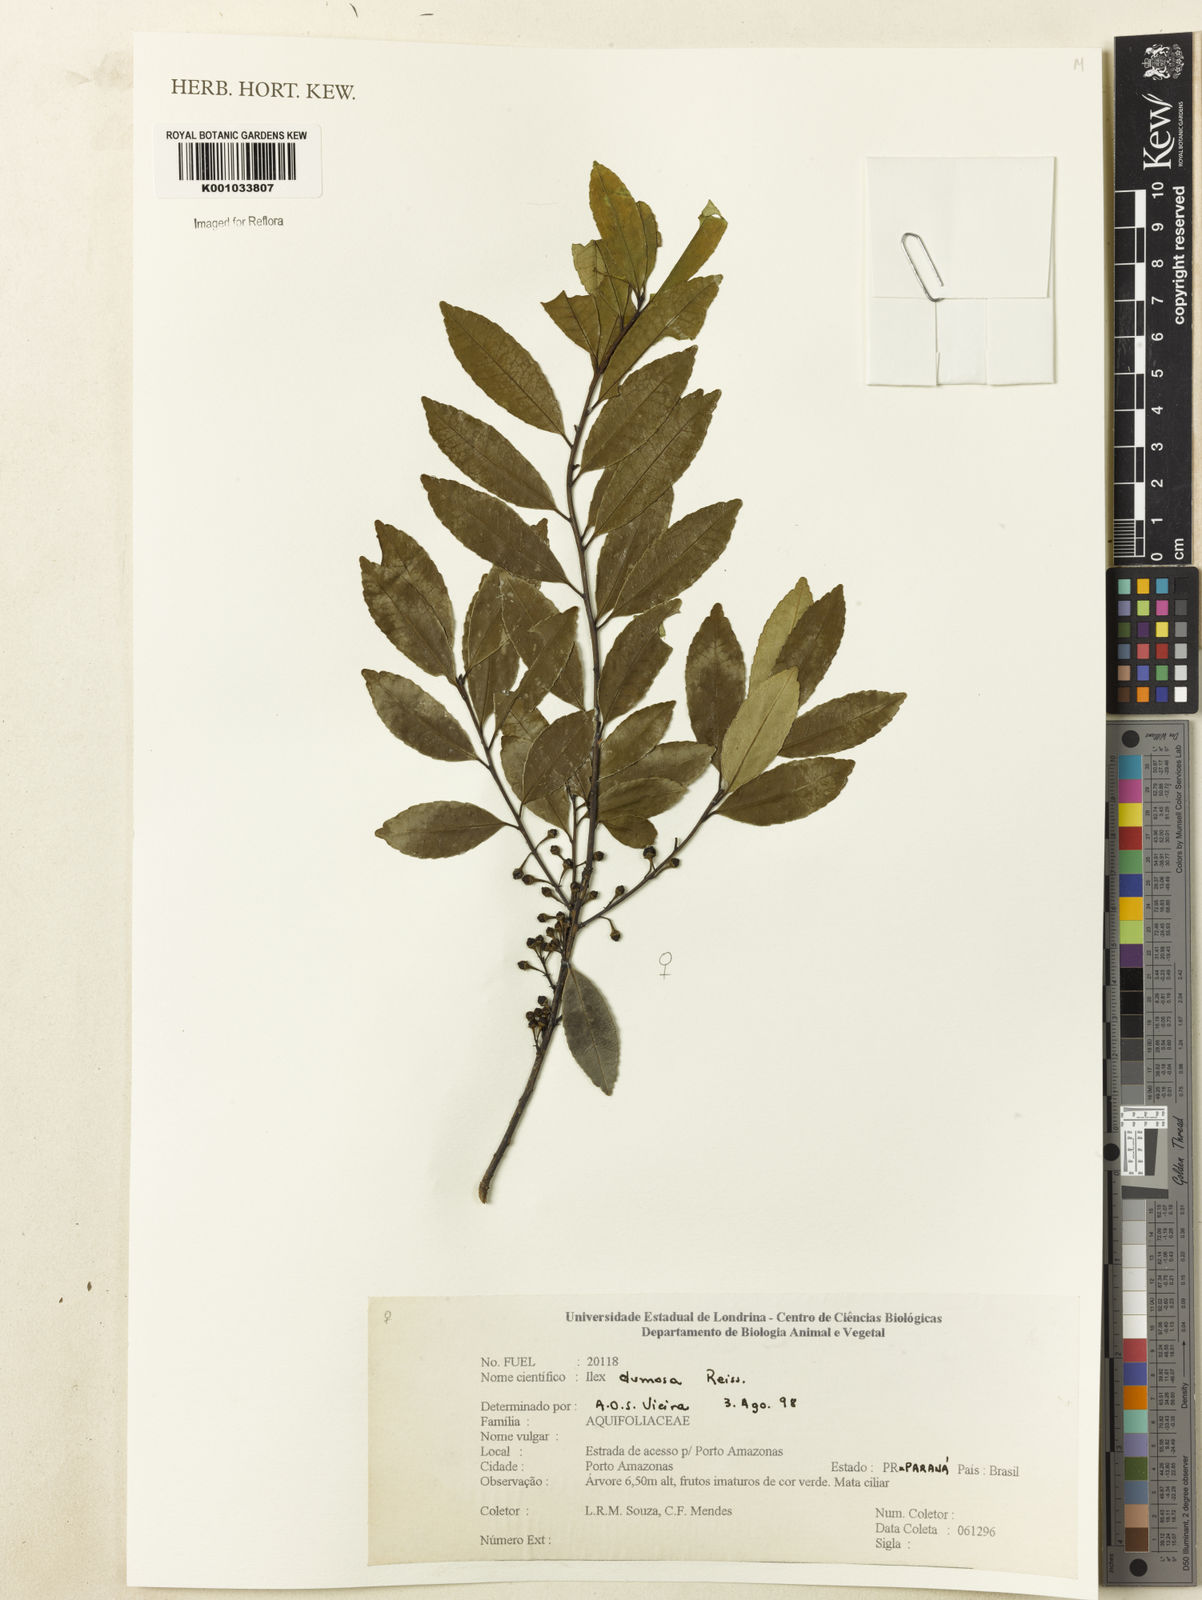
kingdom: Plantae
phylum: Tracheophyta
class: Magnoliopsida
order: Aquifoliales
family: Aquifoliaceae
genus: Ilex
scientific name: Ilex dumosa
